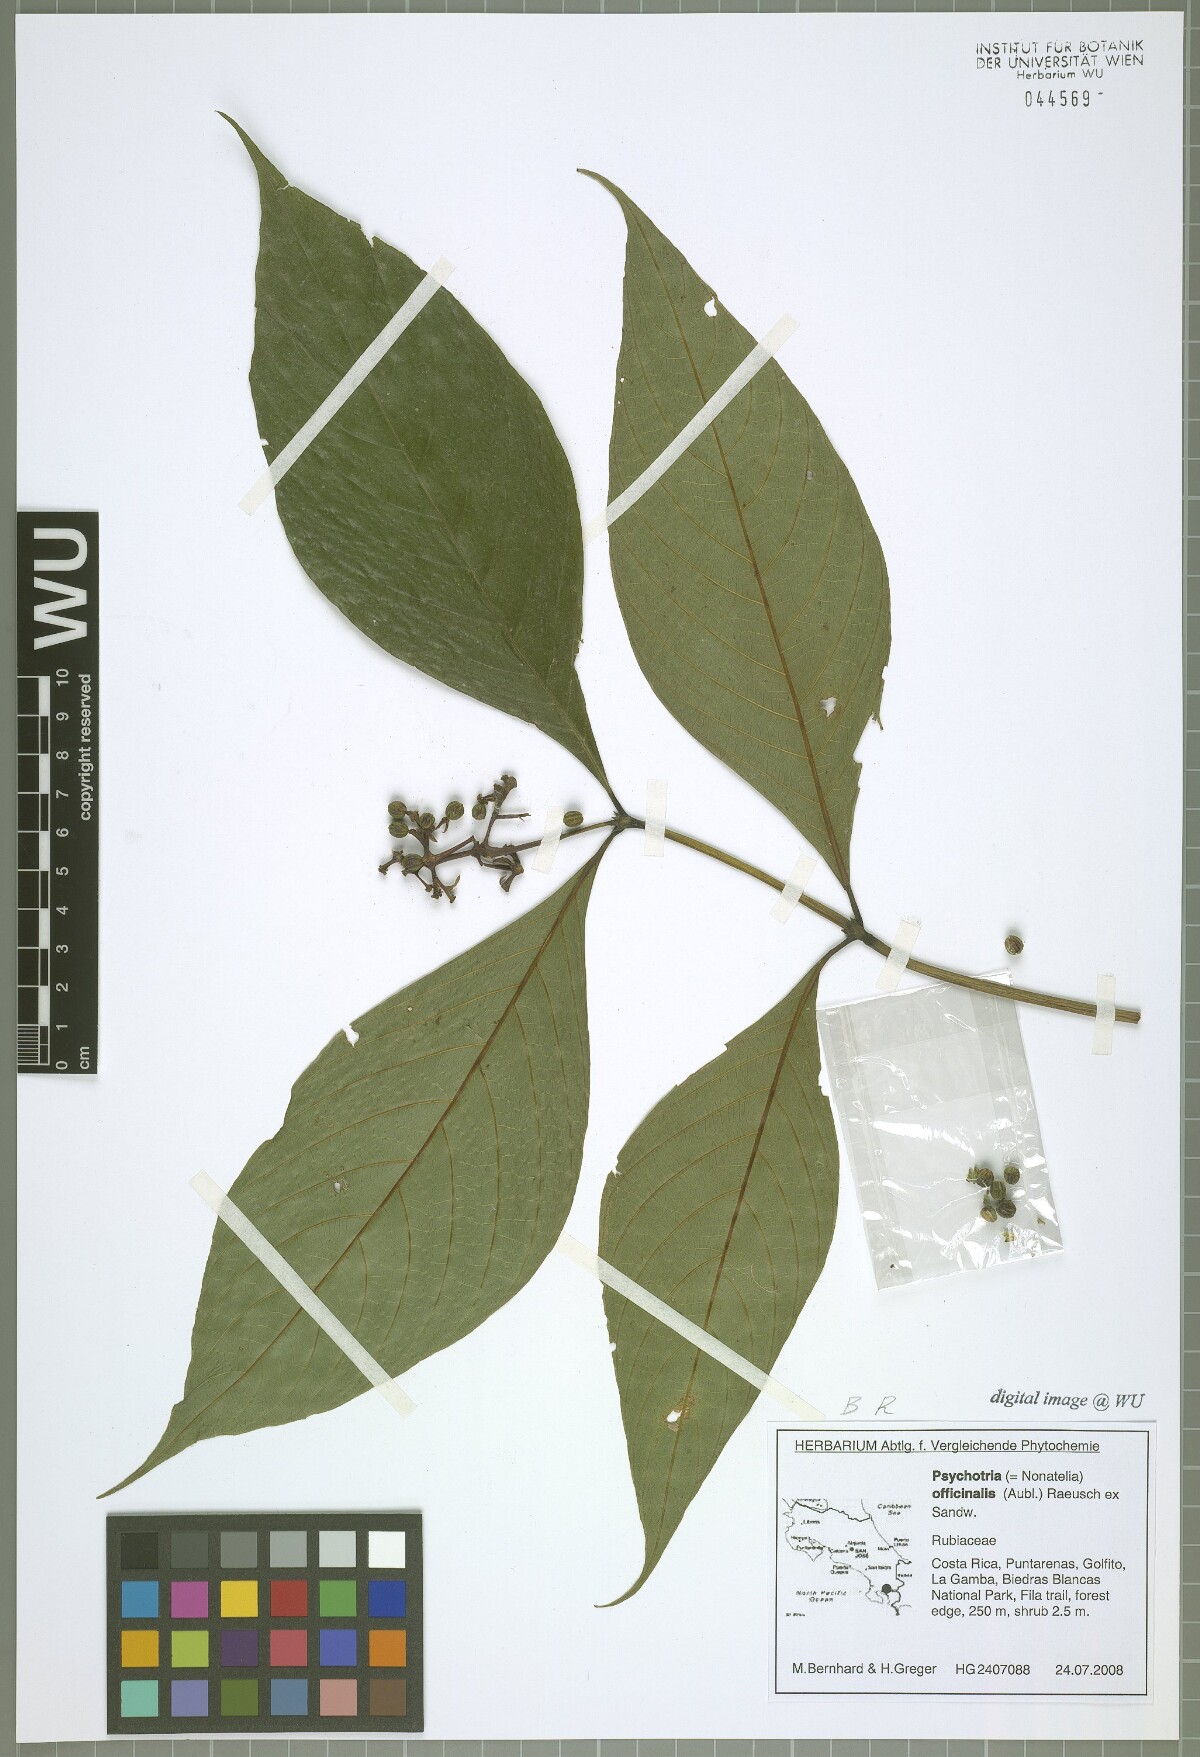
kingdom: Plantae
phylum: Tracheophyta
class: Magnoliopsida
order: Gentianales
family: Rubiaceae
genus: Palicourea
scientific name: Palicourea winkleri
